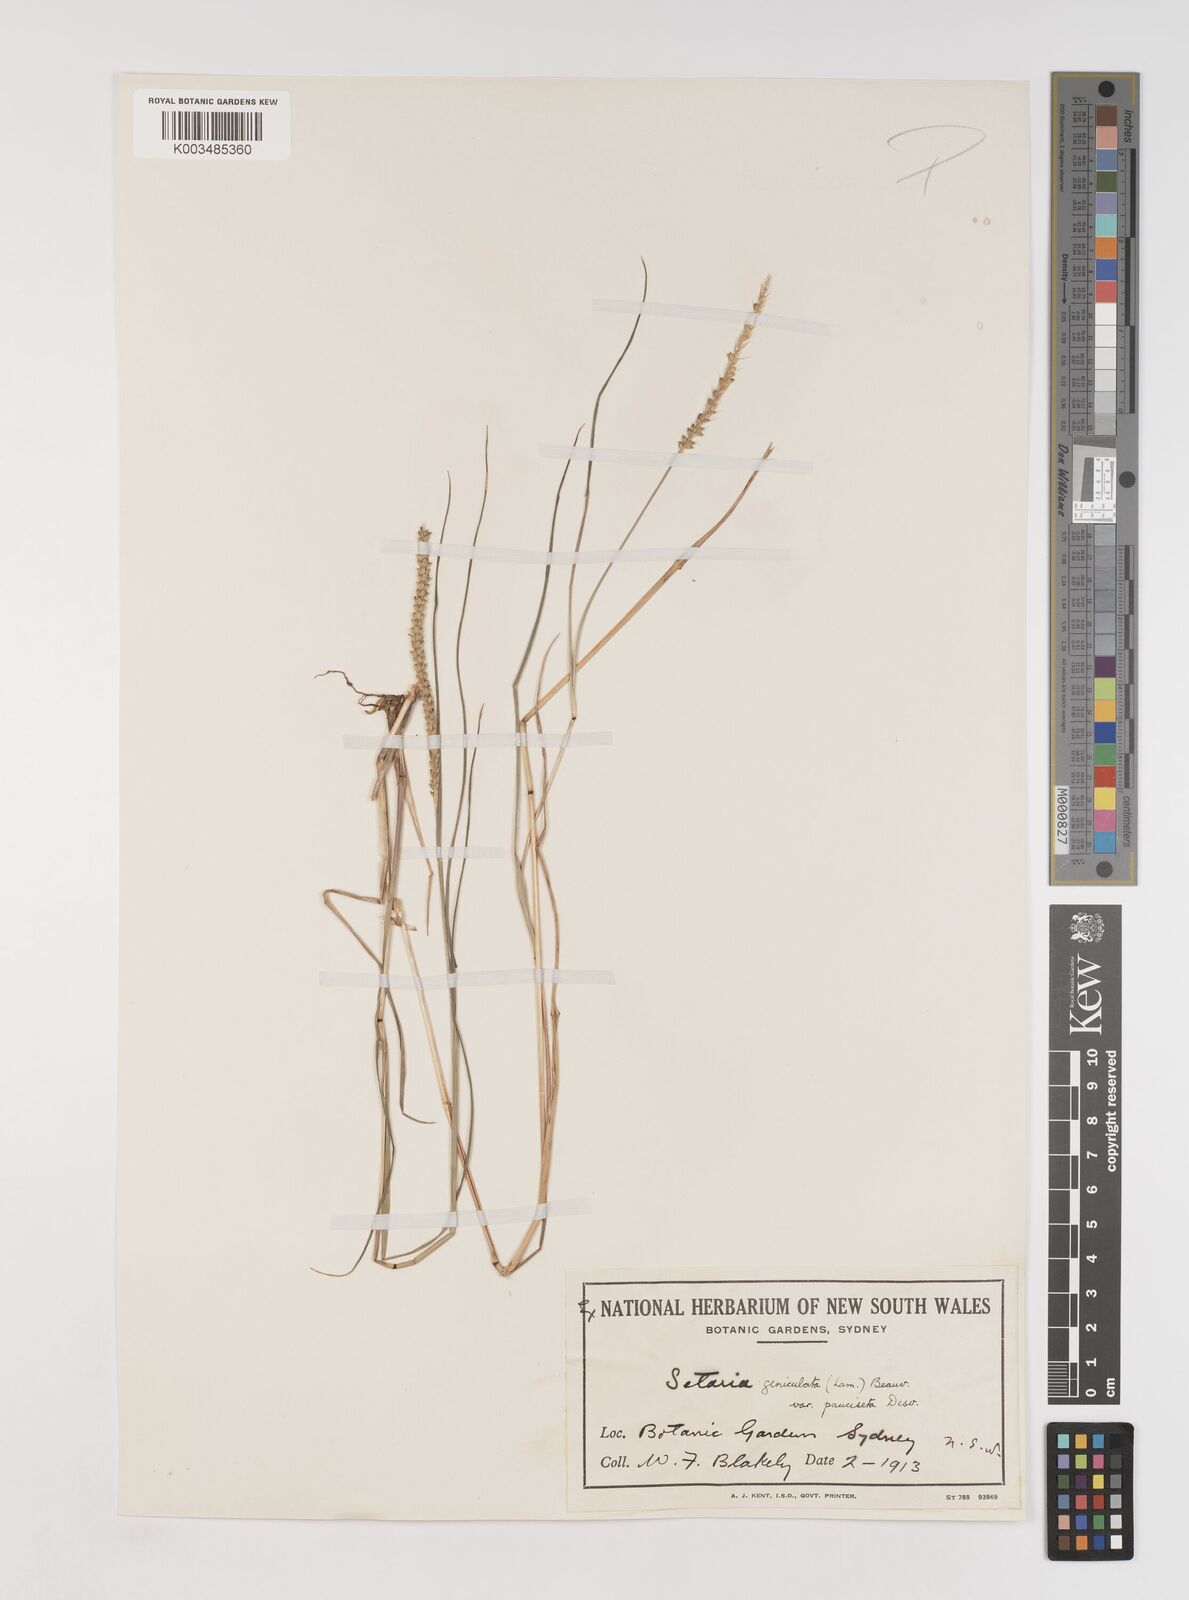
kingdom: Plantae
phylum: Tracheophyta
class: Liliopsida
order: Poales
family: Poaceae
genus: Setaria
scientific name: Setaria parviflora
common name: Knotroot bristle-grass
